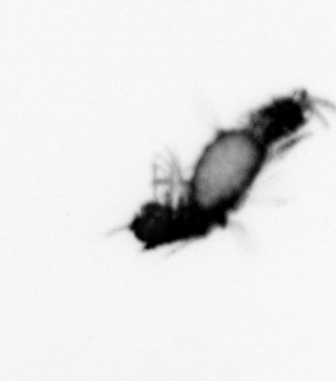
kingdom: Animalia
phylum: Annelida
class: Polychaeta
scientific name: Polychaeta
